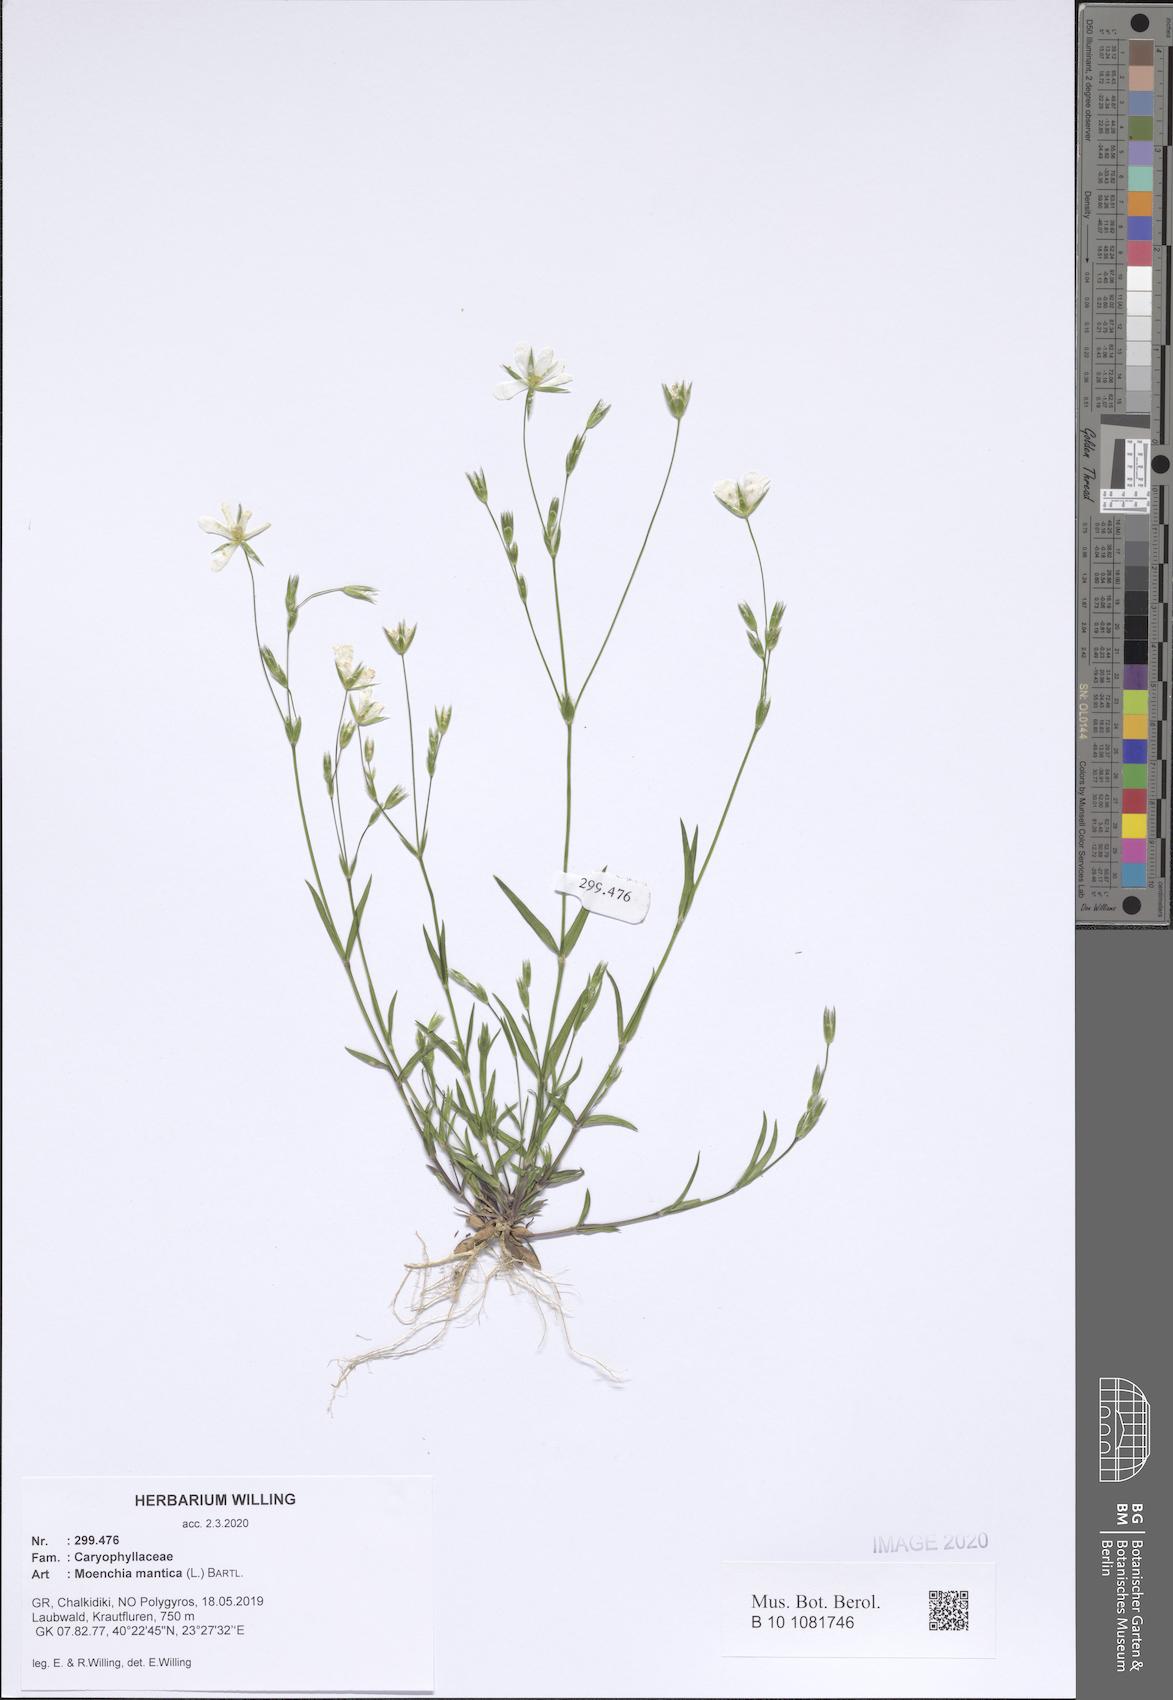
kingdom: Plantae
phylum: Tracheophyta
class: Magnoliopsida
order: Caryophyllales
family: Caryophyllaceae
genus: Moenchia
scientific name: Moenchia mantica
